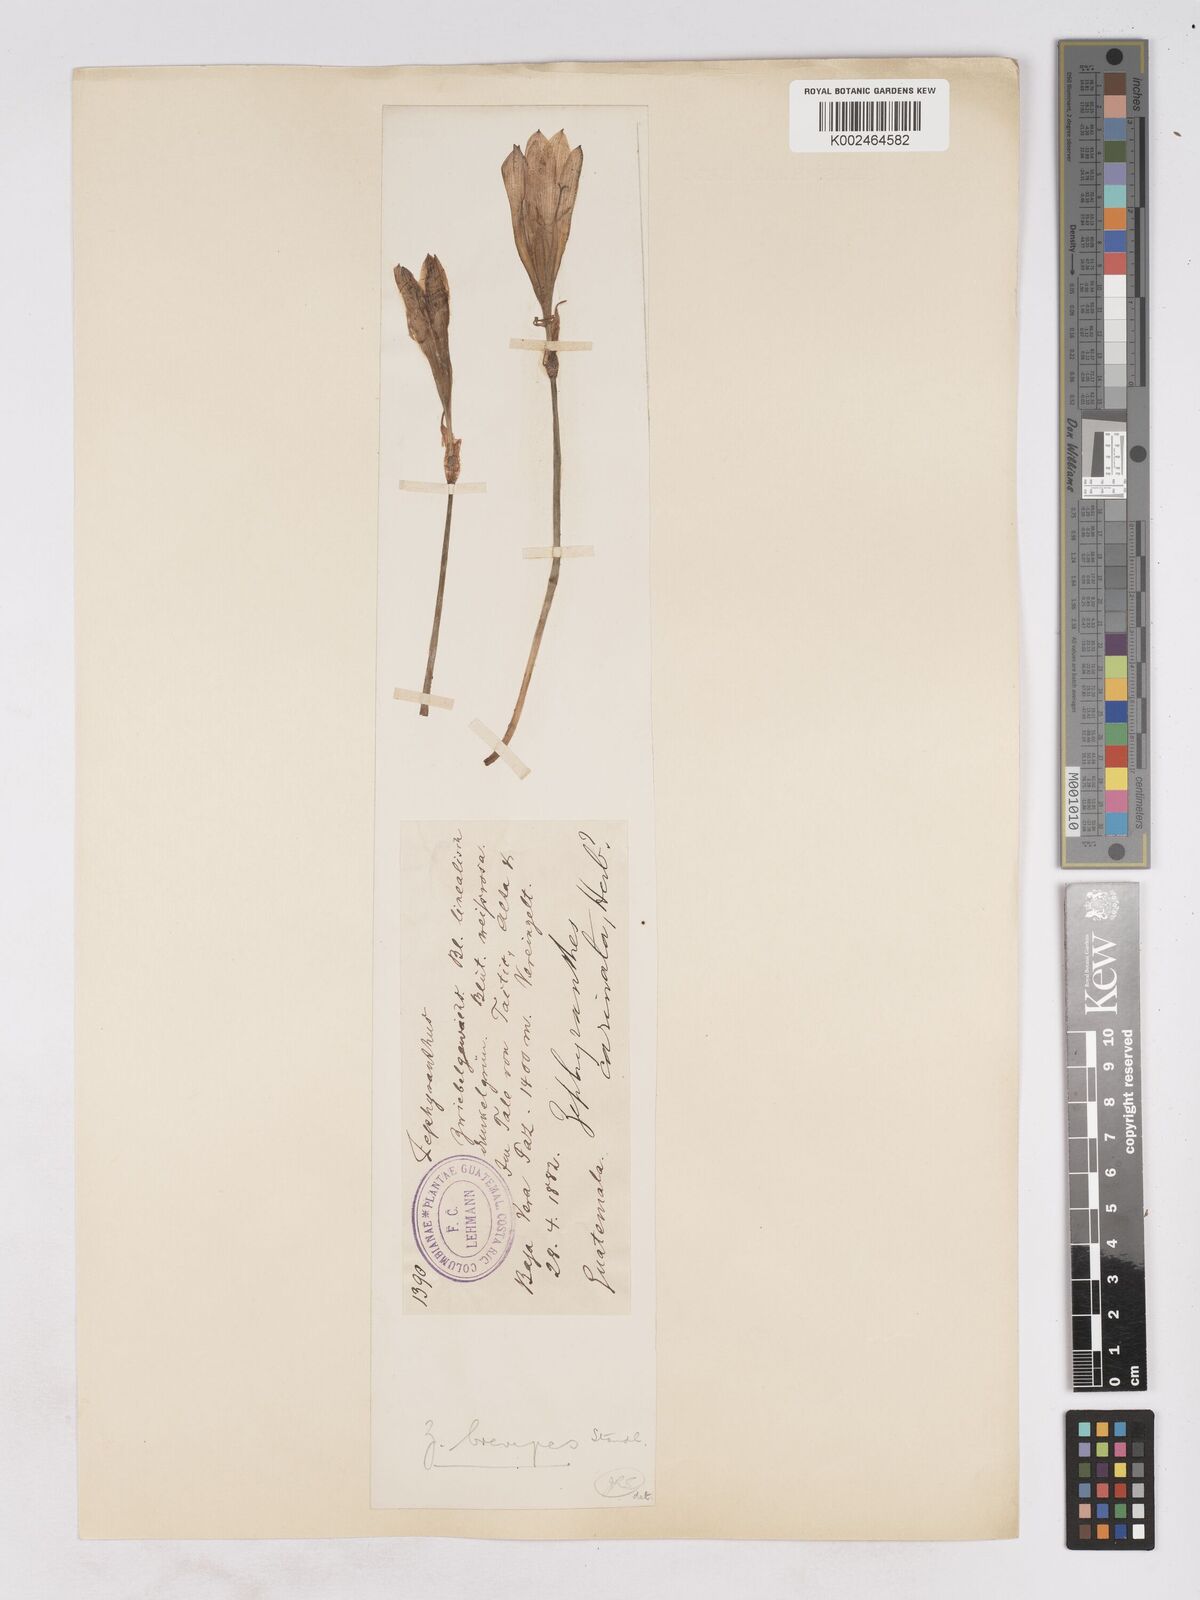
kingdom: Plantae
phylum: Tracheophyta
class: Liliopsida
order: Asparagales
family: Amaryllidaceae
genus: Zephyranthes
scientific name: Zephyranthes brevipes
